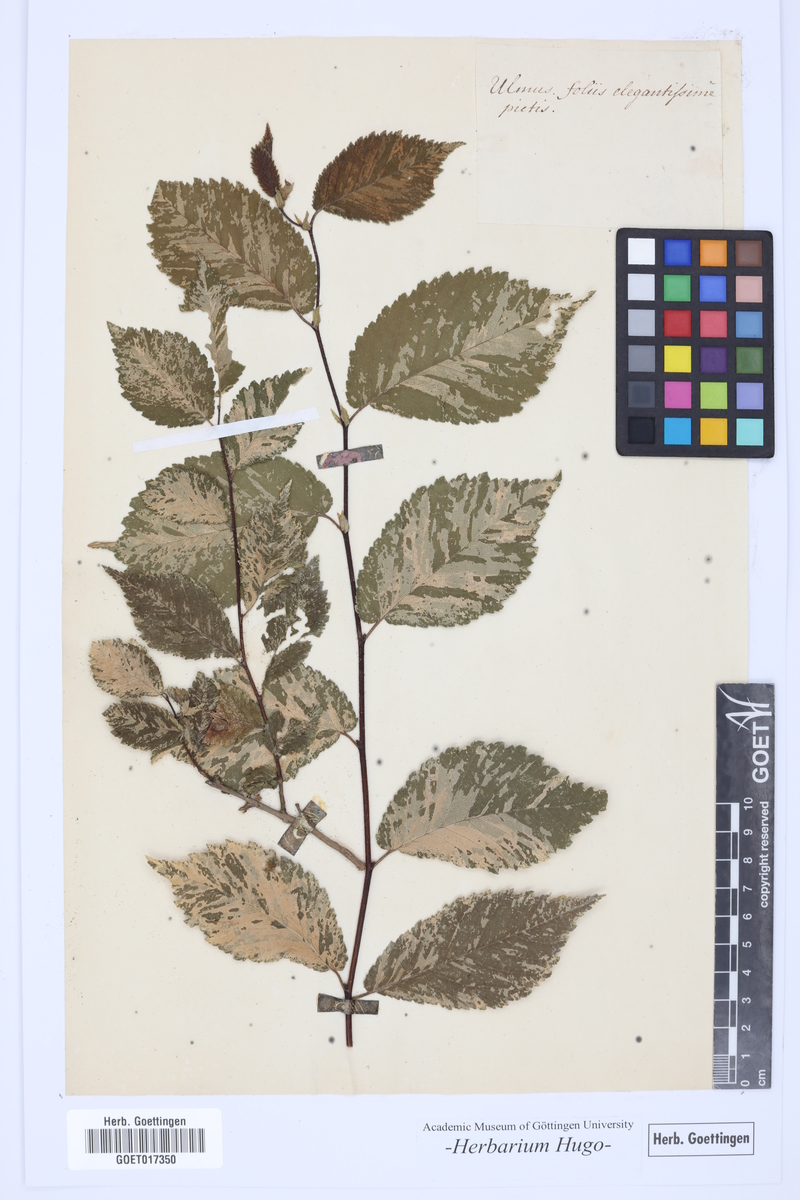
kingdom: Plantae
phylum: Tracheophyta
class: Magnoliopsida
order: Rosales
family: Ulmaceae
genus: Ulmus
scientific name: Ulmus
